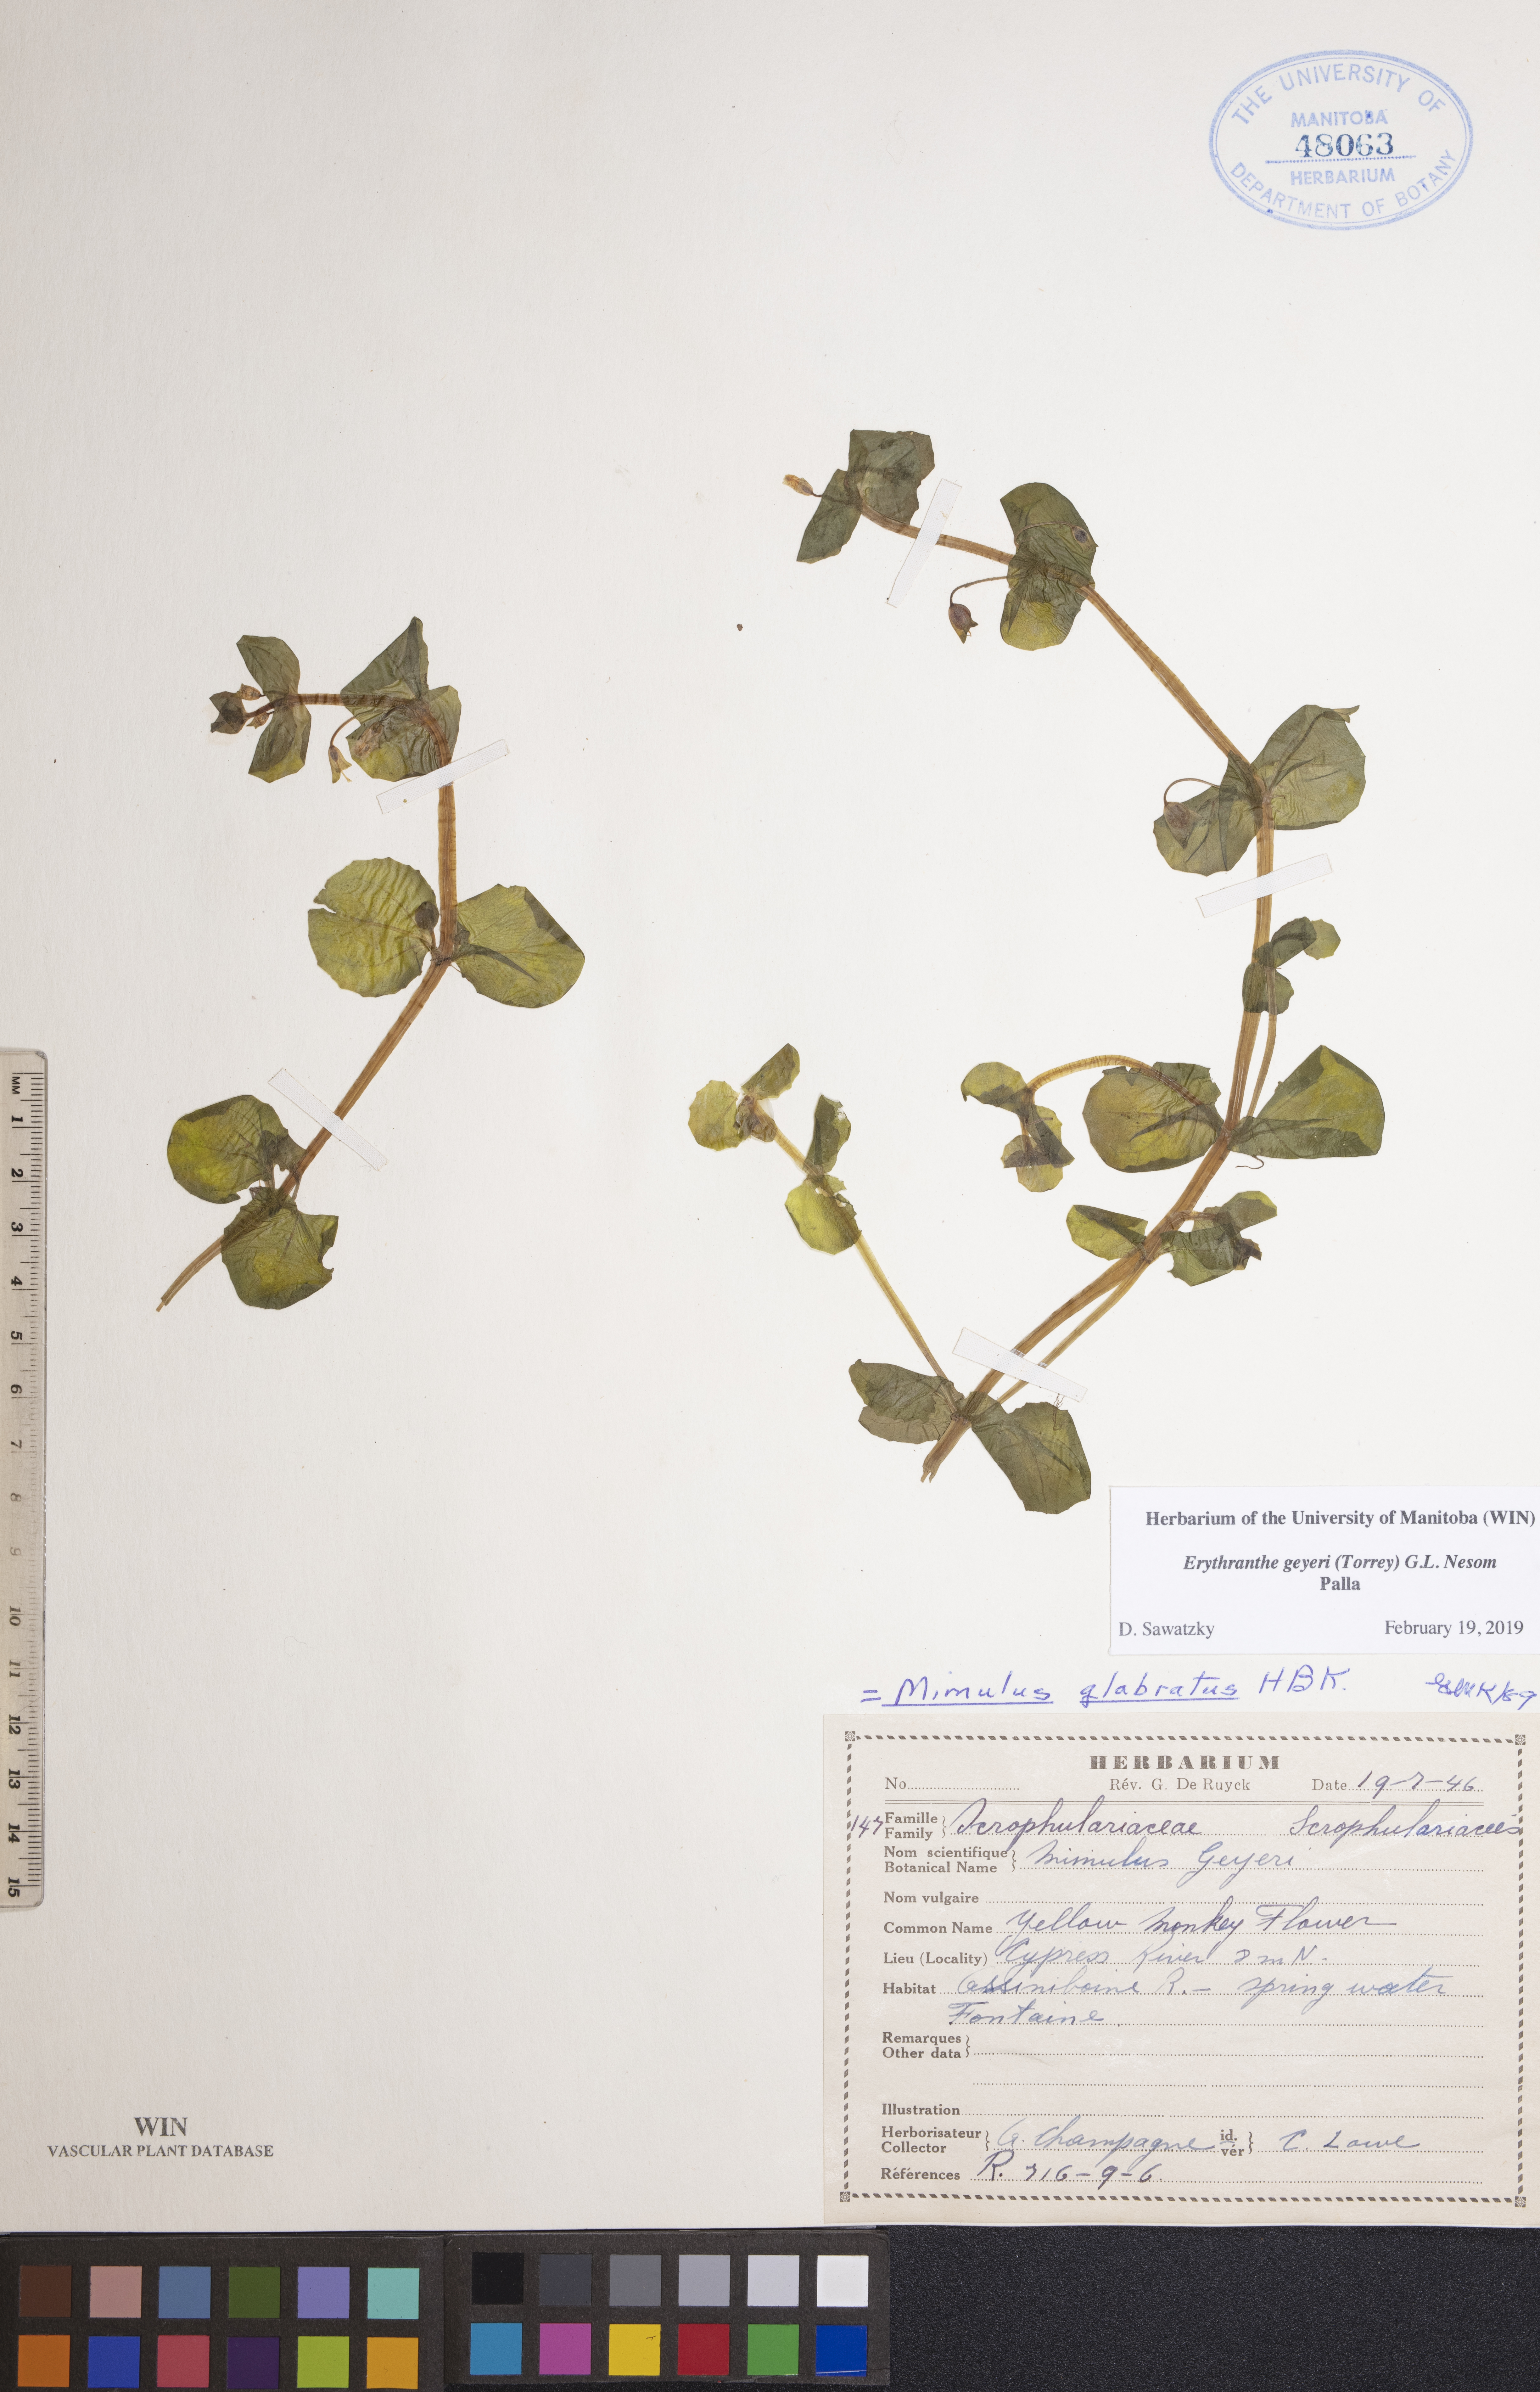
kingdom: Plantae
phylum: Tracheophyta
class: Magnoliopsida
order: Lamiales
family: Phrymaceae
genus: Erythranthe
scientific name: Erythranthe geyeri
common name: Geyer's monkeyflower
